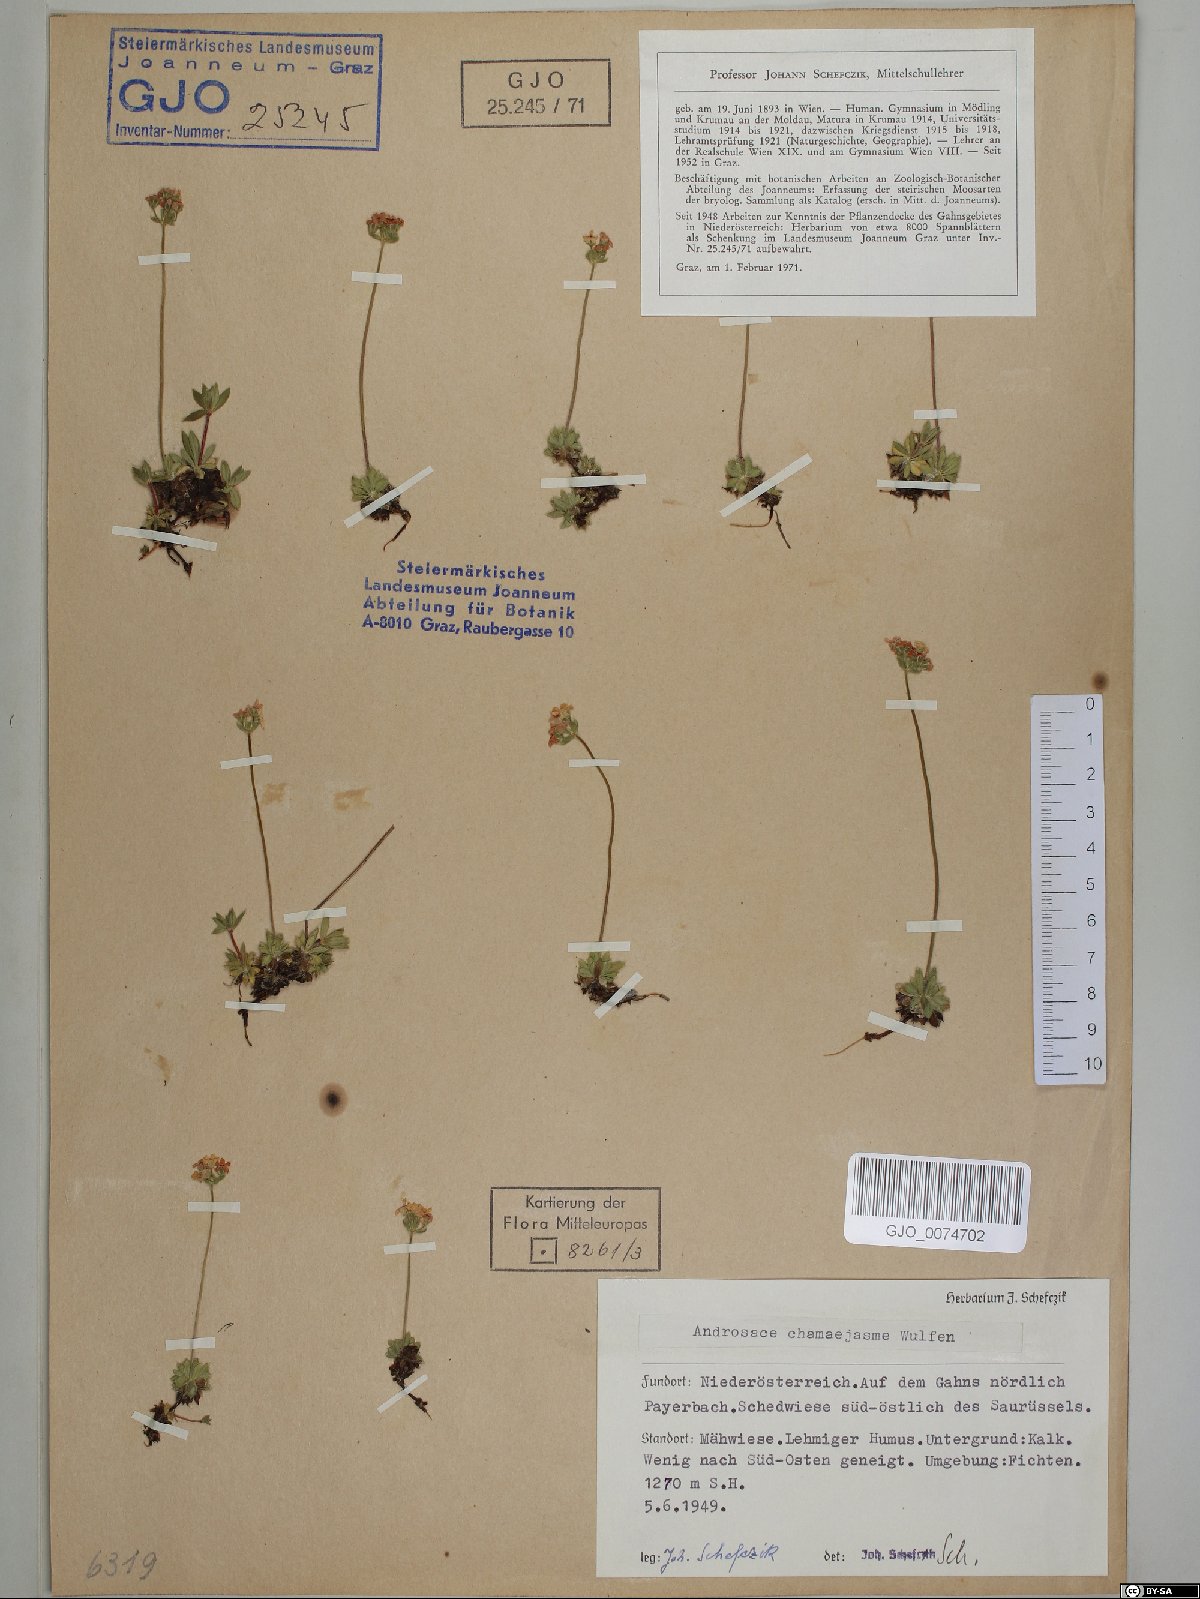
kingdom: Plantae
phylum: Tracheophyta
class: Magnoliopsida
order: Ericales
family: Primulaceae
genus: Androsace
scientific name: Androsace chamaejasme
